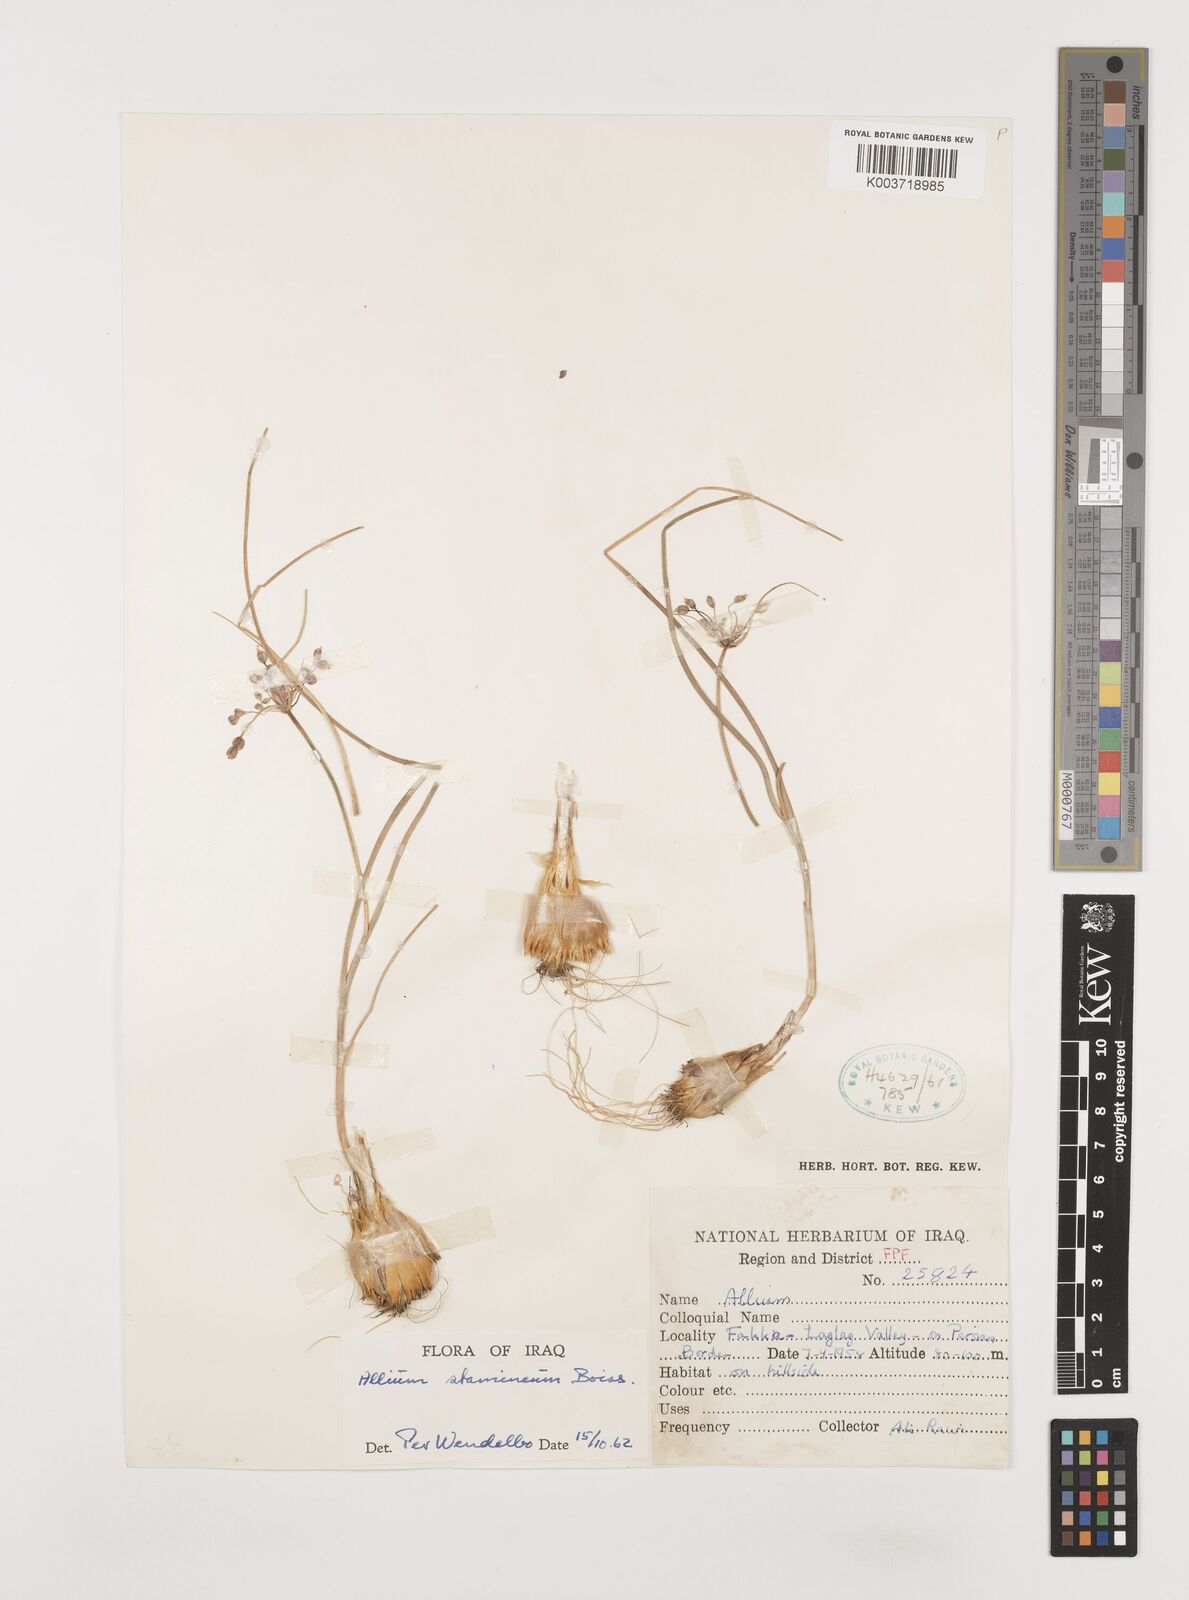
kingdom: Plantae
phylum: Tracheophyta
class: Liliopsida
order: Asparagales
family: Amaryllidaceae
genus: Allium
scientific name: Allium stamineum
